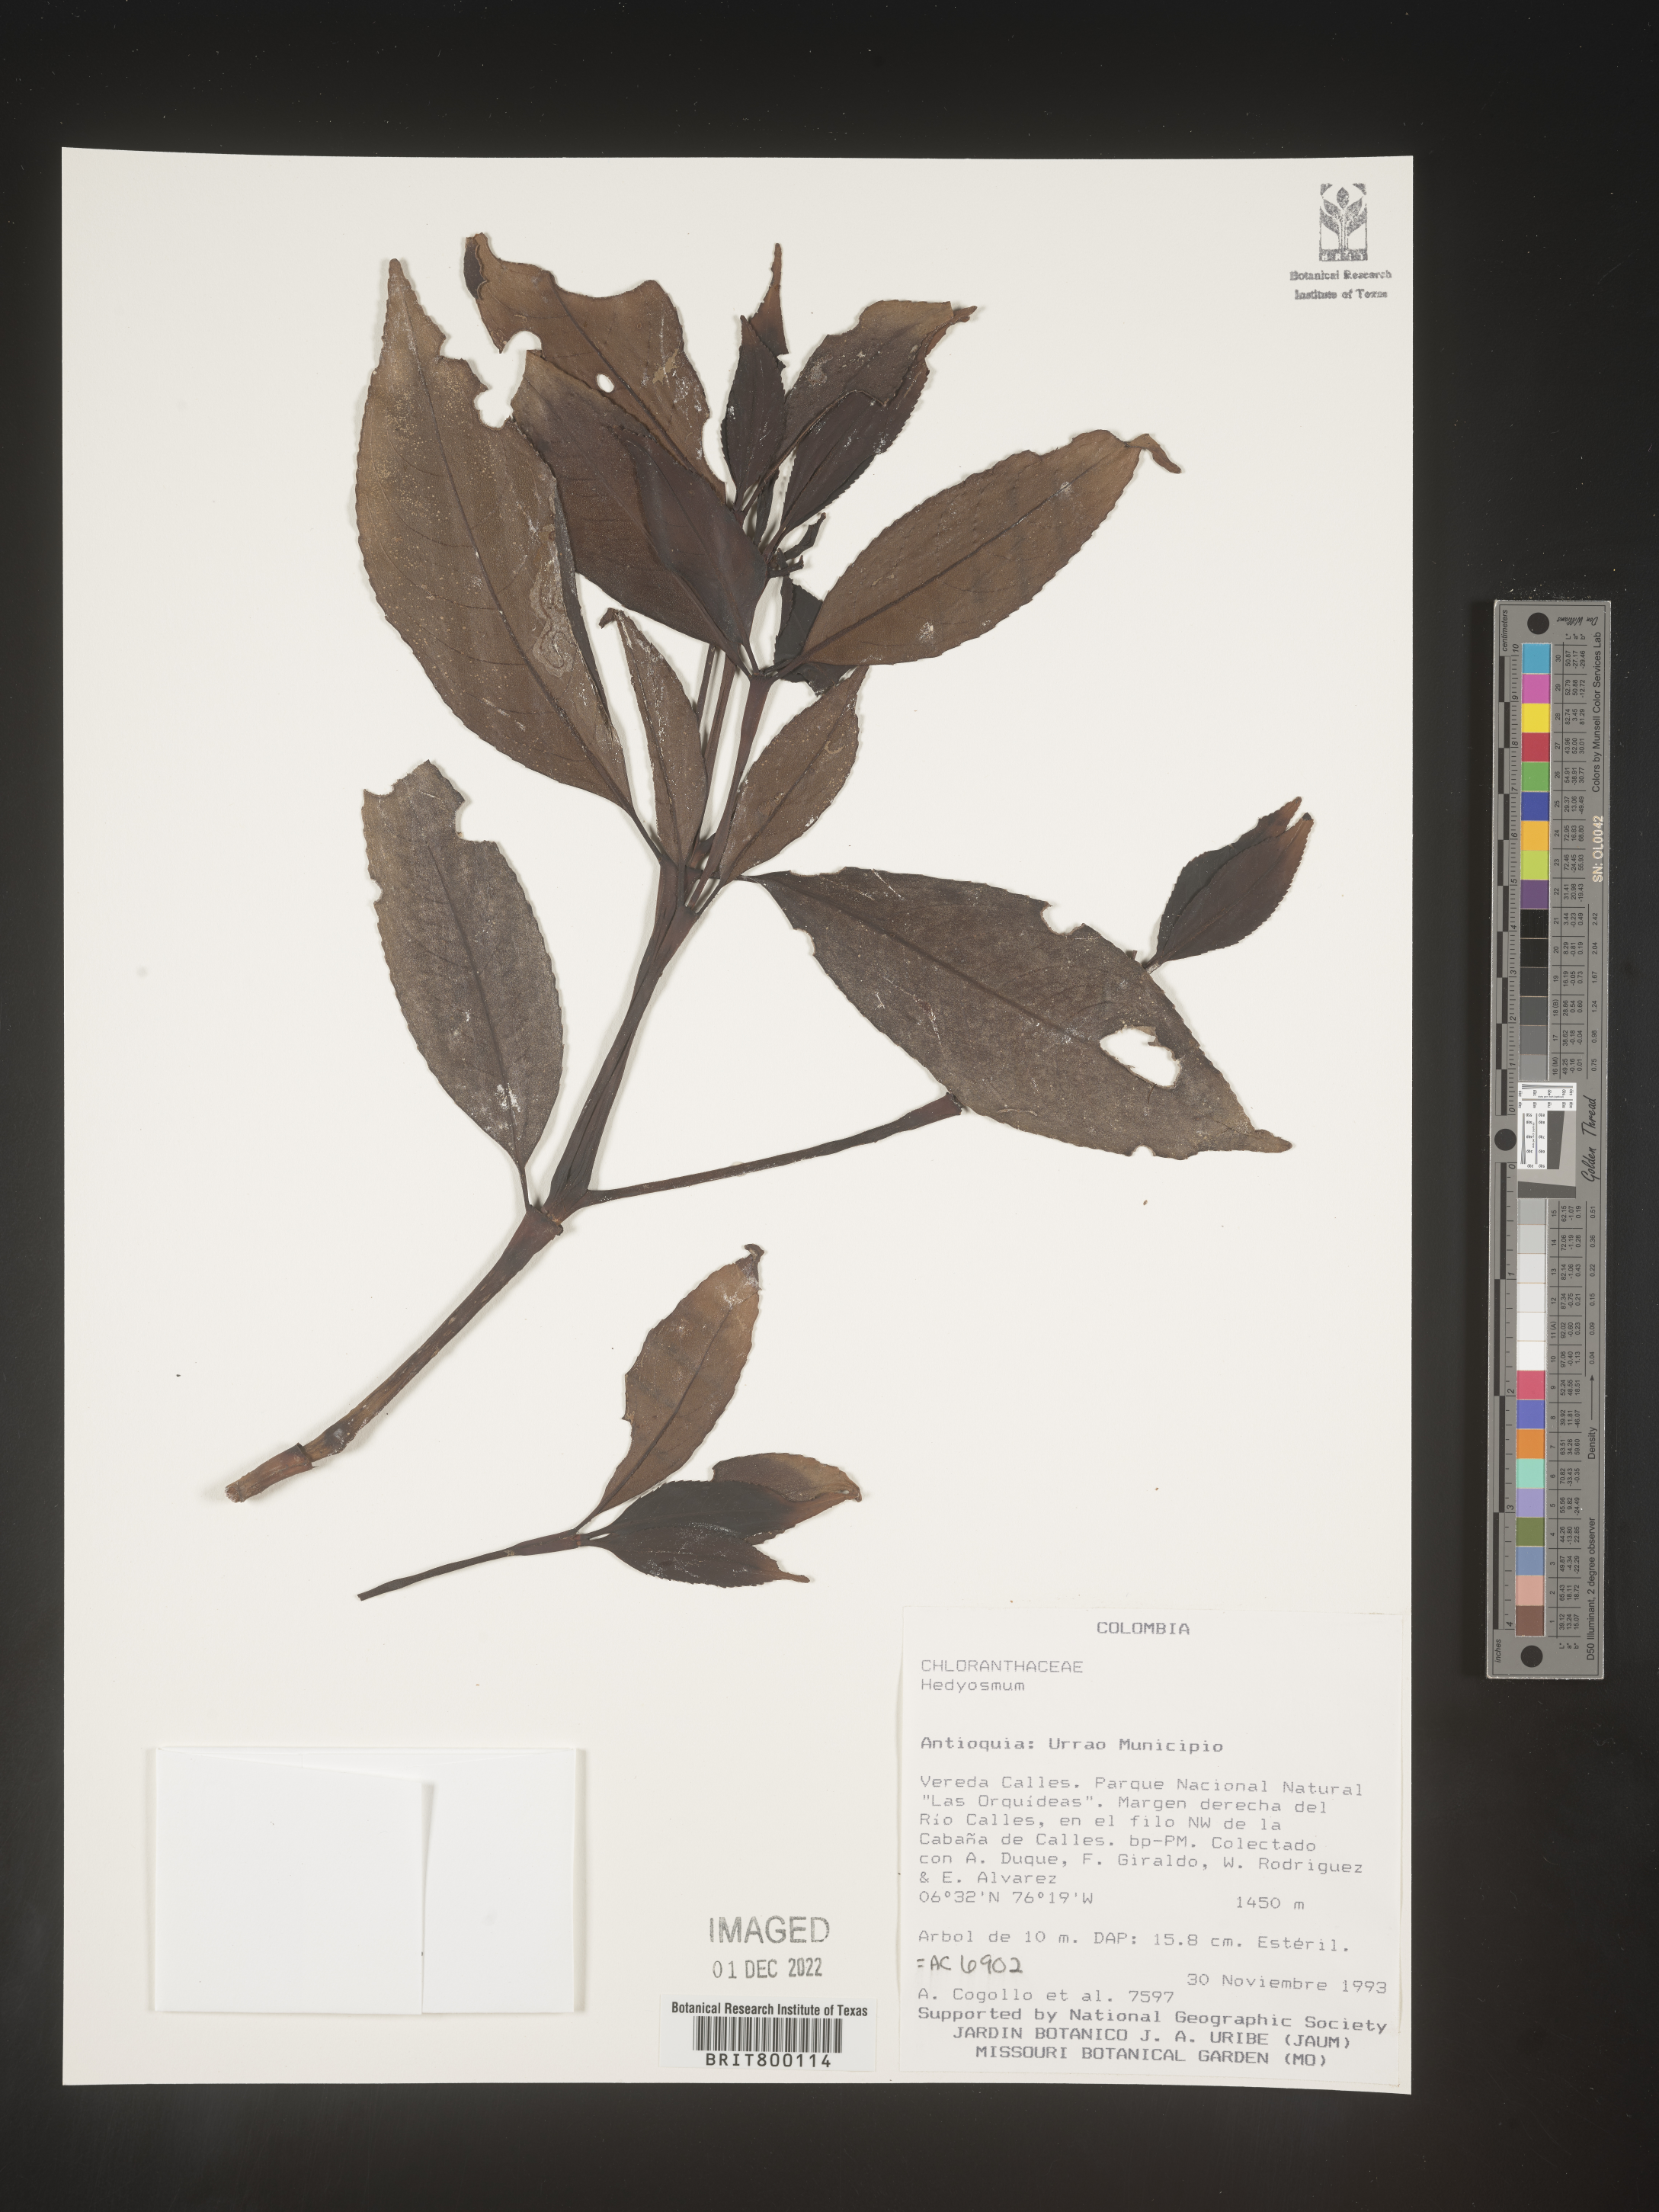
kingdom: Plantae
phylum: Tracheophyta
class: Magnoliopsida
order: Chloranthales
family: Chloranthaceae
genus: Hedyosmum
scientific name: Hedyosmum
